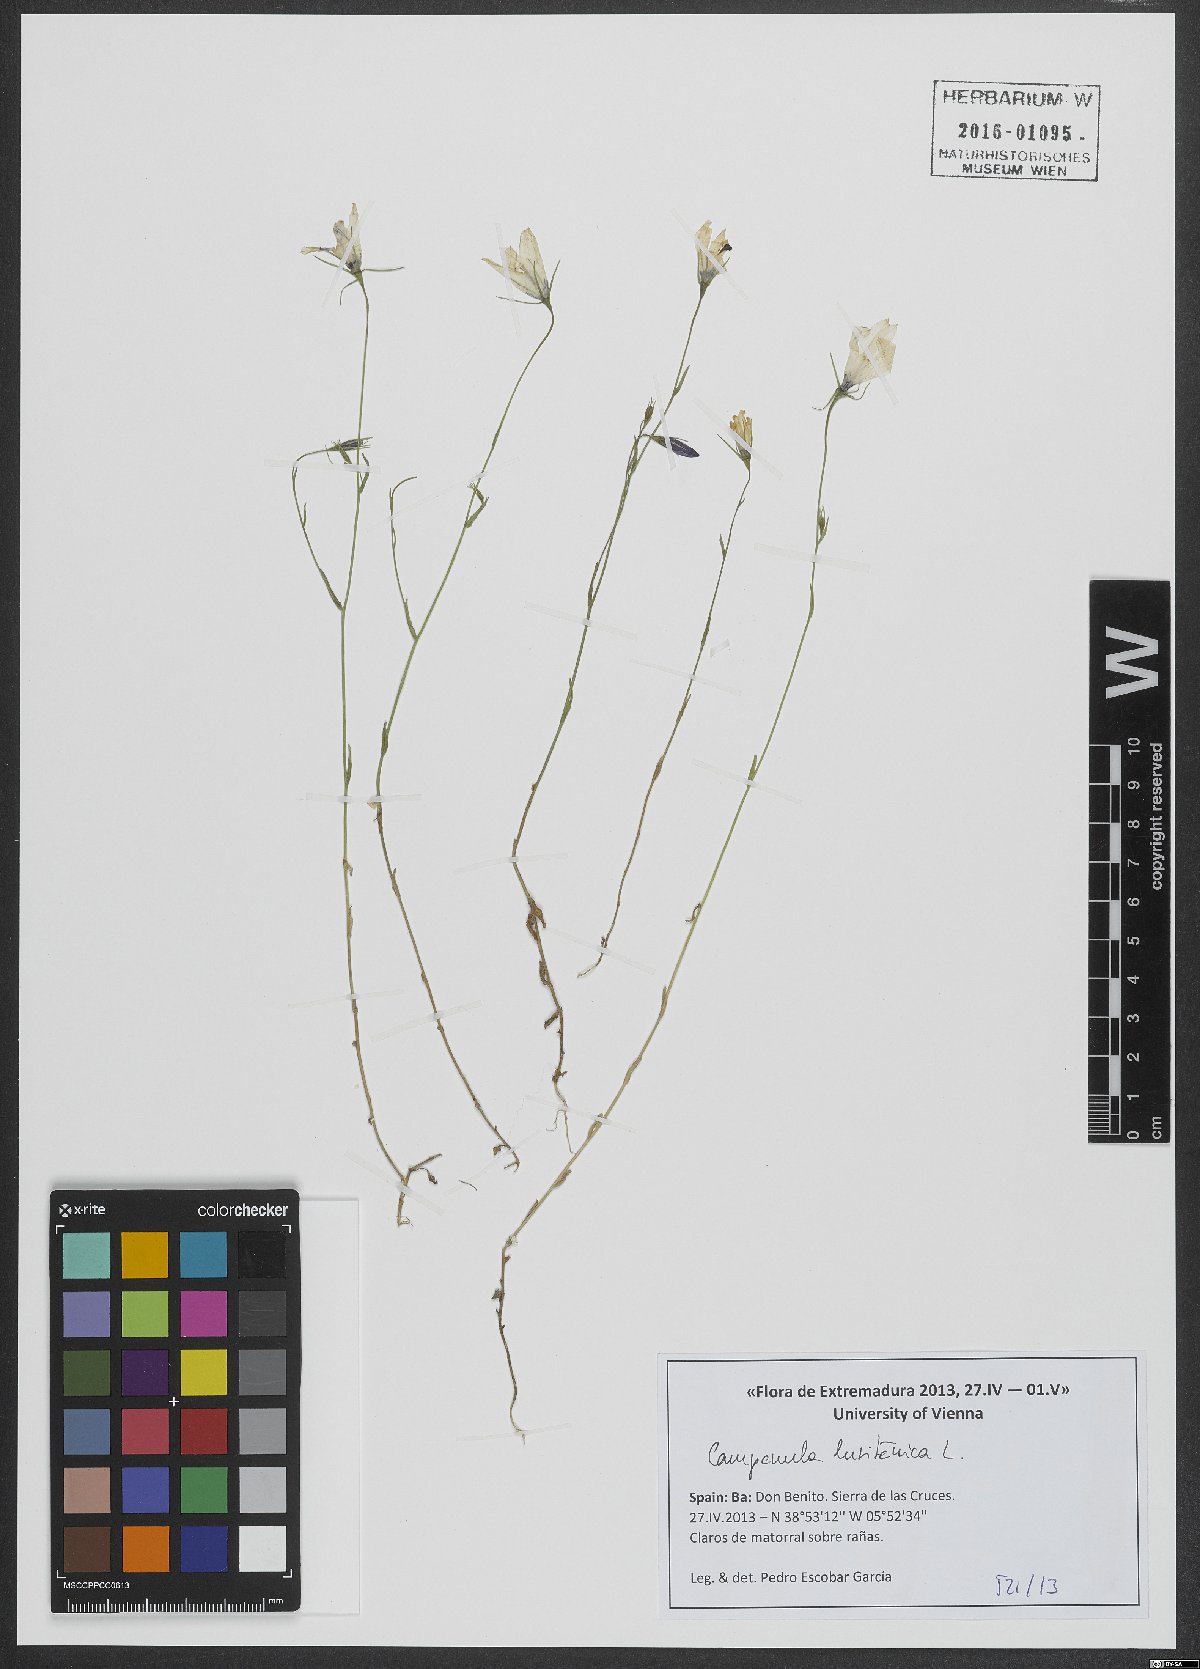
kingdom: Plantae
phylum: Tracheophyta
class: Magnoliopsida
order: Asterales
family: Campanulaceae
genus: Campanula
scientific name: Campanula lusitanica
